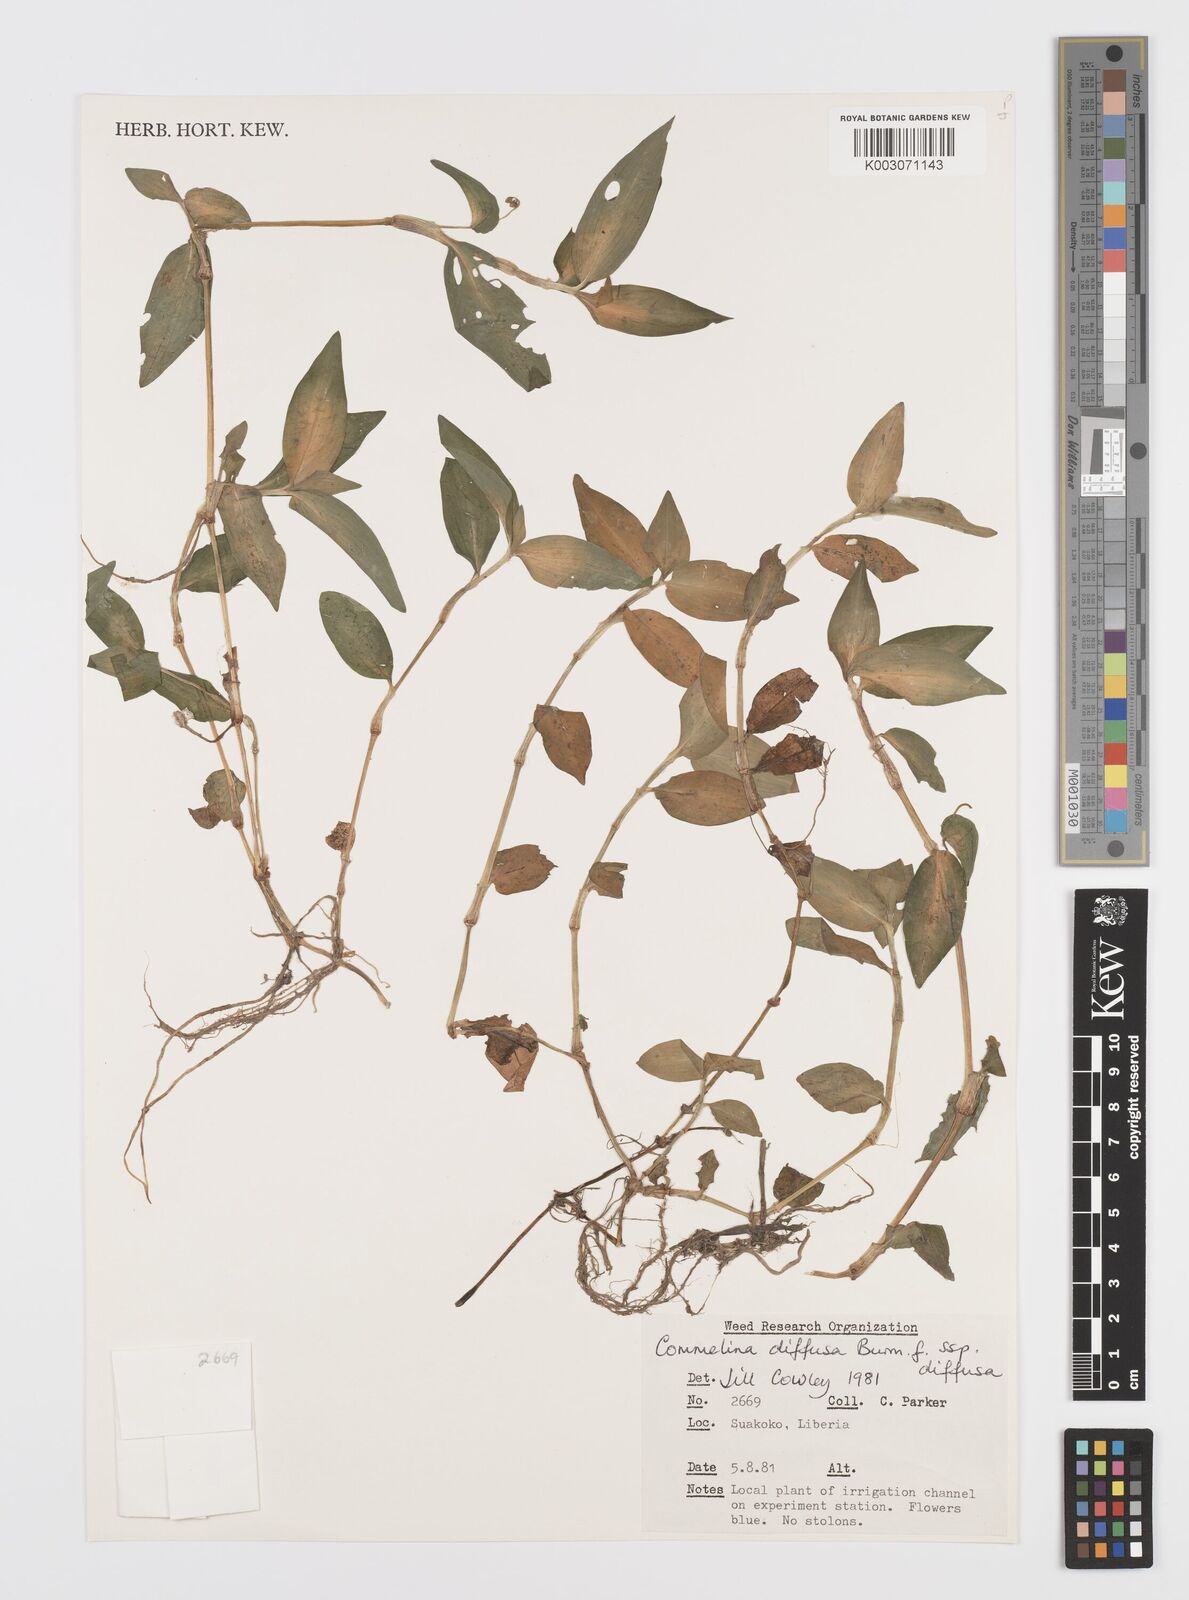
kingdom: Plantae
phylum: Tracheophyta
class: Liliopsida
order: Commelinales
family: Commelinaceae
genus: Commelina
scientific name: Commelina diffusa
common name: Climbing dayflower
